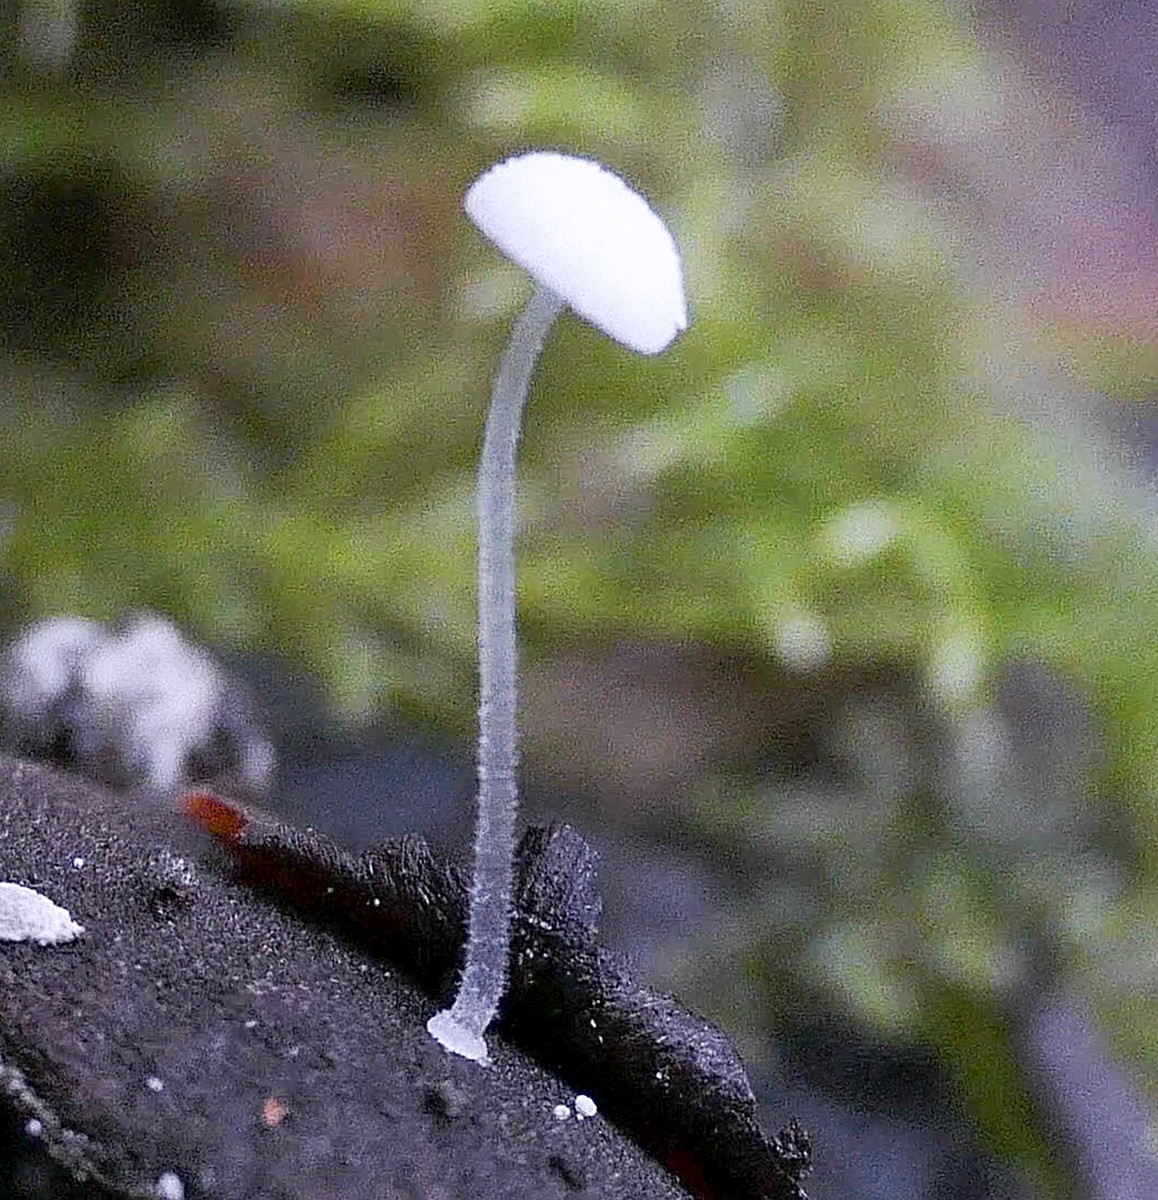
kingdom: Fungi
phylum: Basidiomycota
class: Agaricomycetes
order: Agaricales
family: Mycenaceae
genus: Mycena
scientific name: Mycena tenerrima
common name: pudret huesvamp
